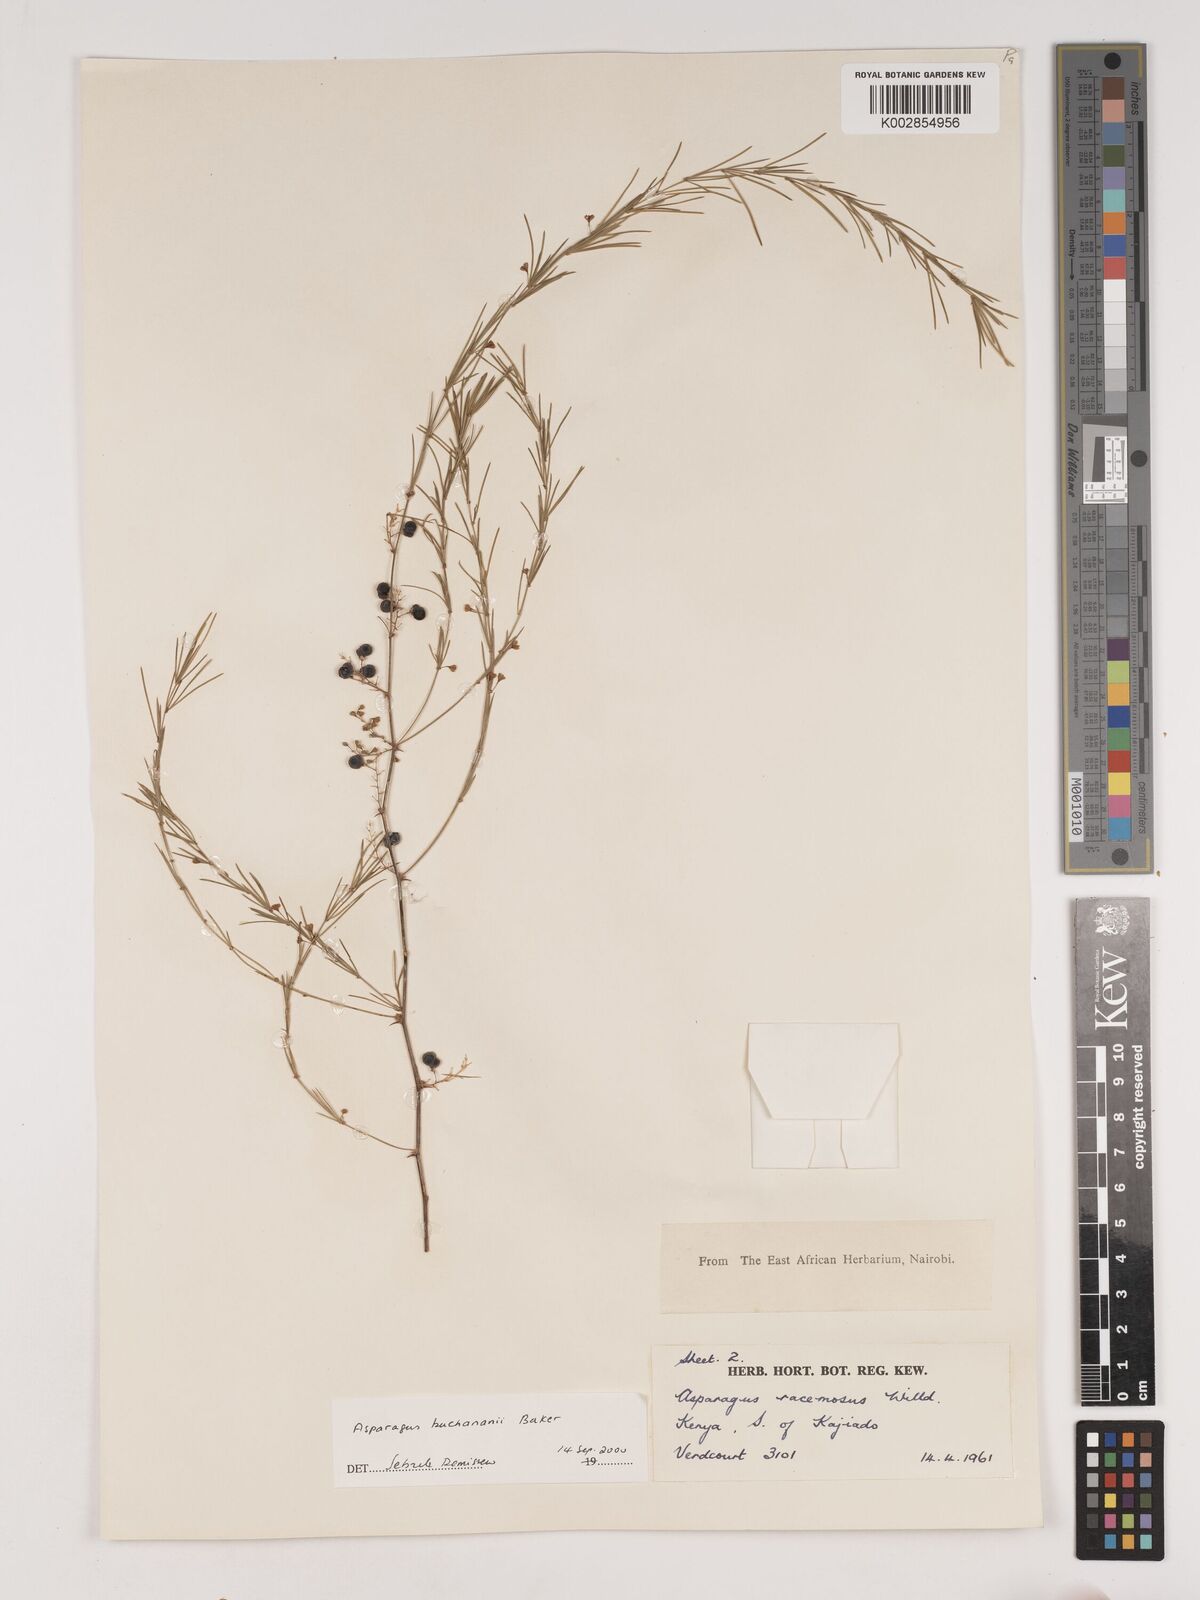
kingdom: Plantae
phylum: Tracheophyta
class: Liliopsida
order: Asparagales
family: Asparagaceae
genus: Asparagus
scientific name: Asparagus buchananii
